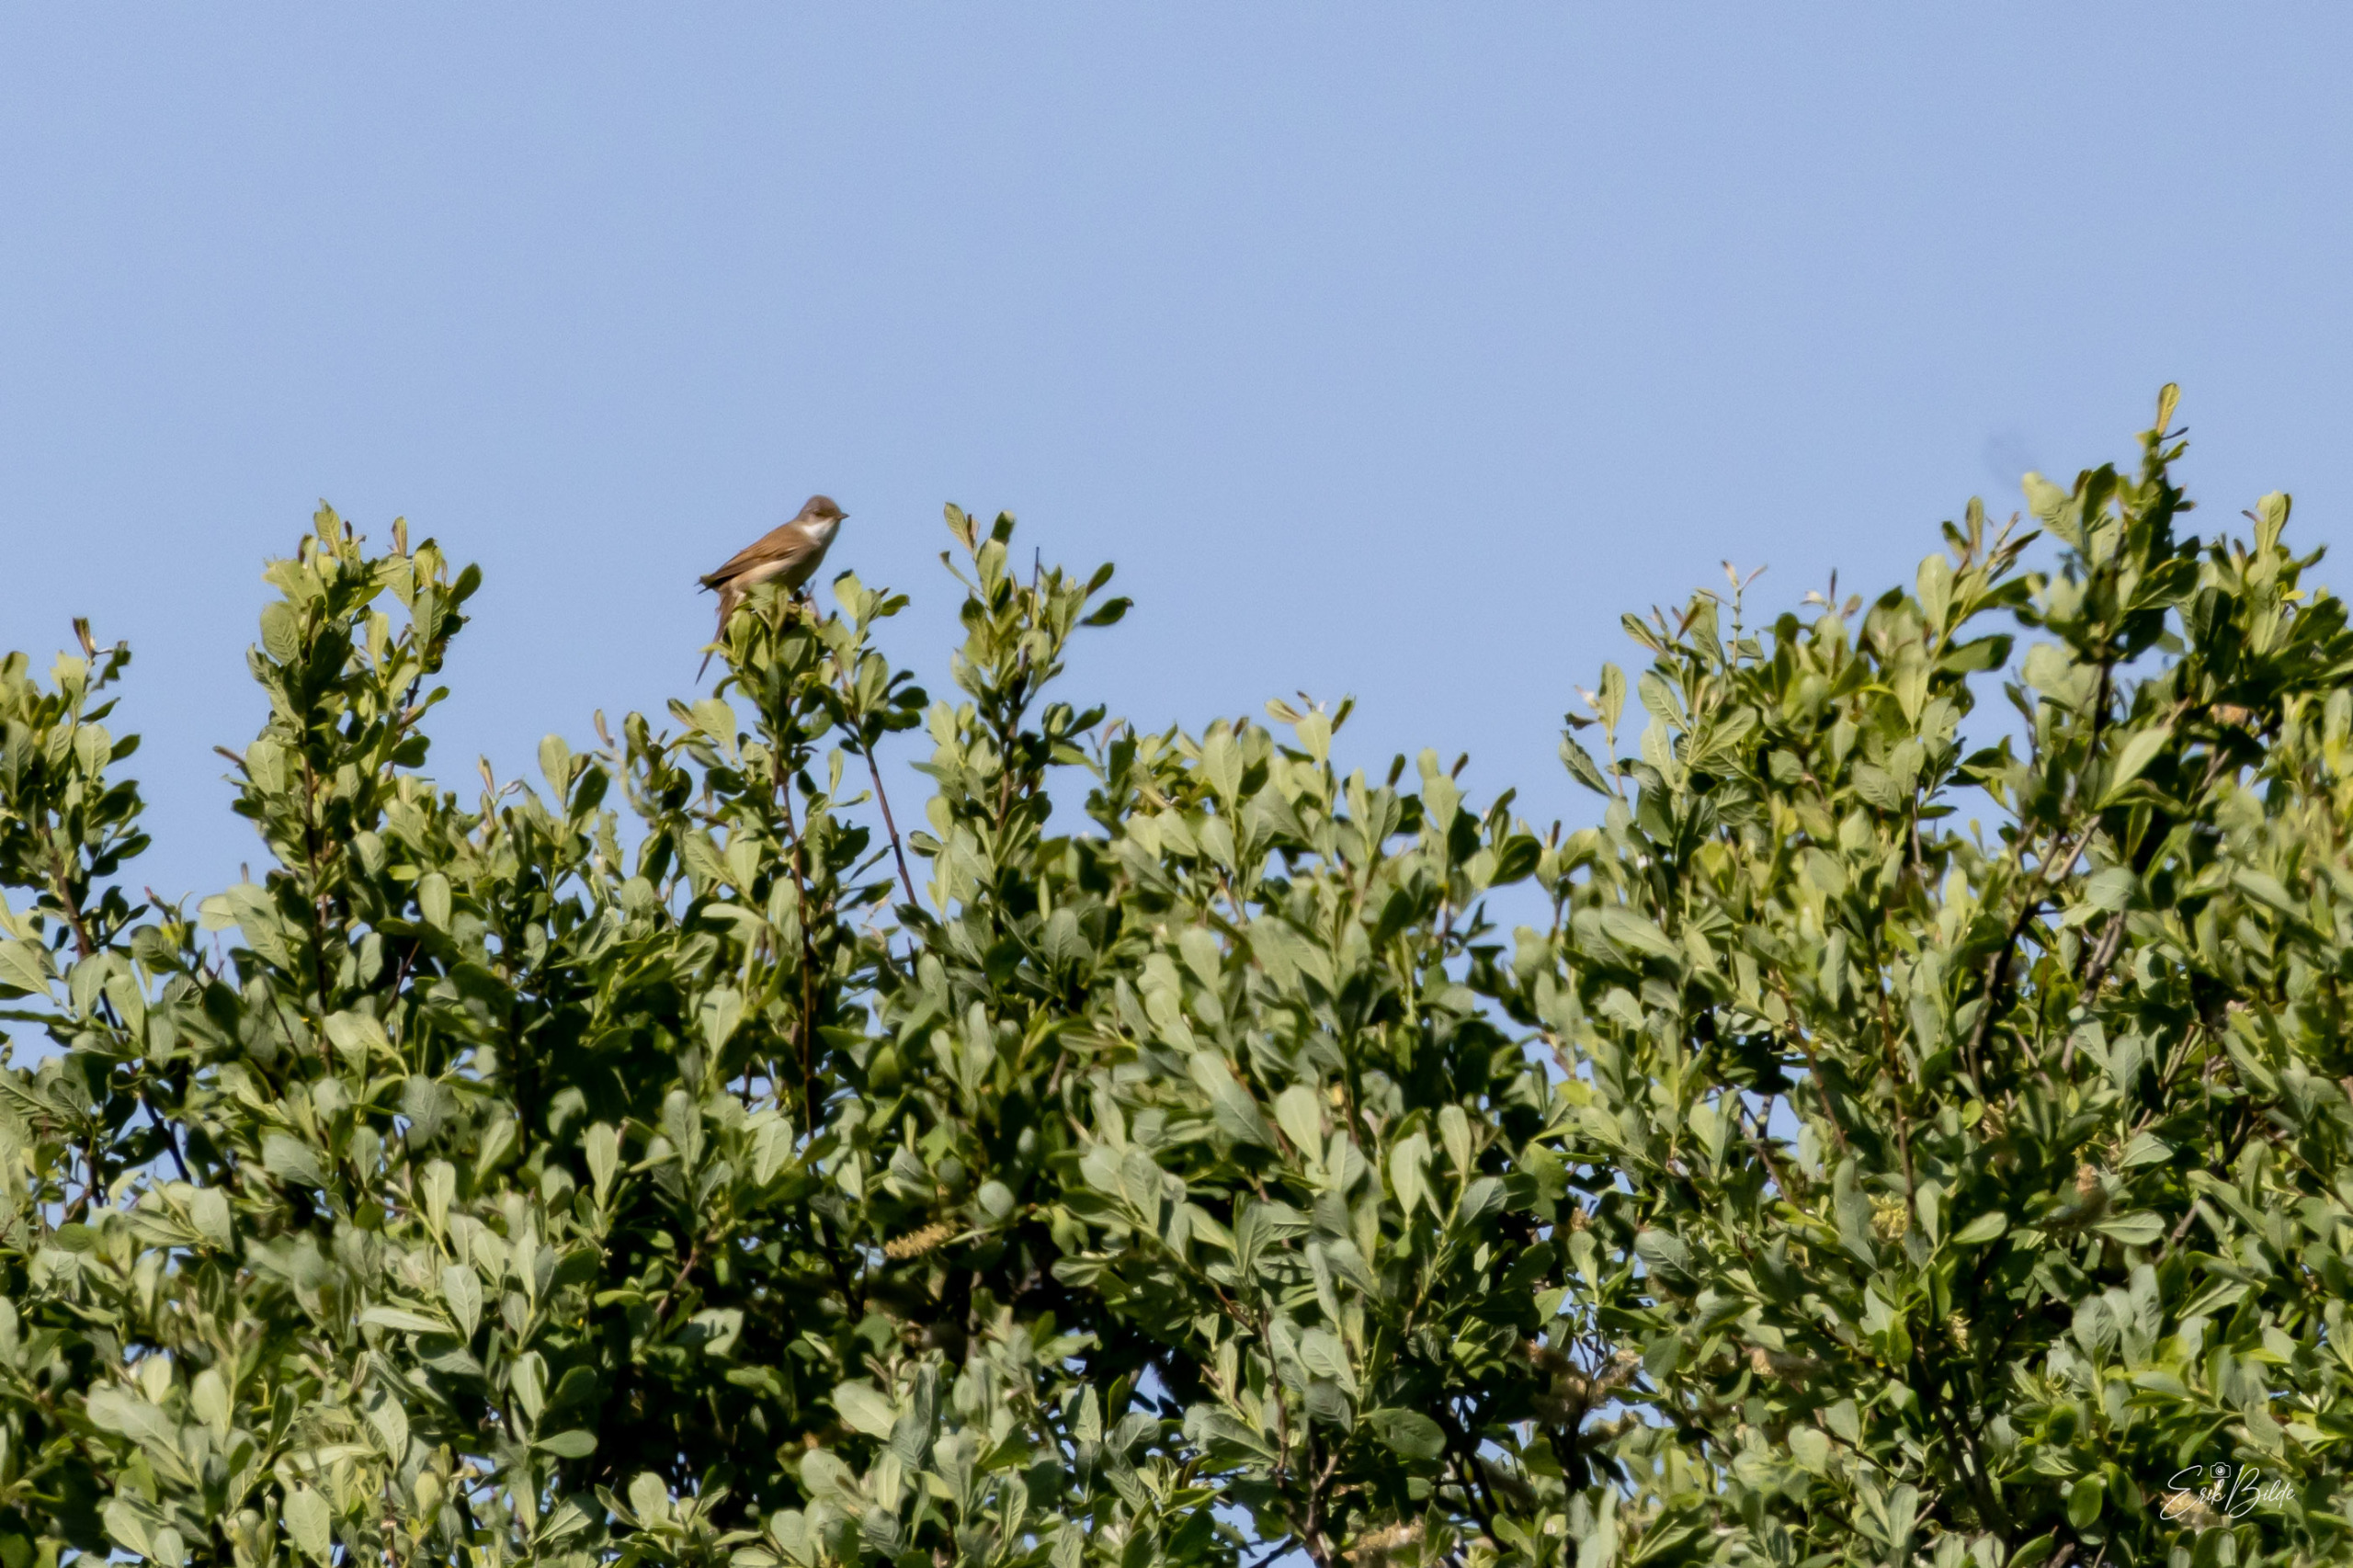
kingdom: Animalia
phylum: Chordata
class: Aves
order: Passeriformes
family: Sylviidae
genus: Sylvia
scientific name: Sylvia communis
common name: Tornsanger
